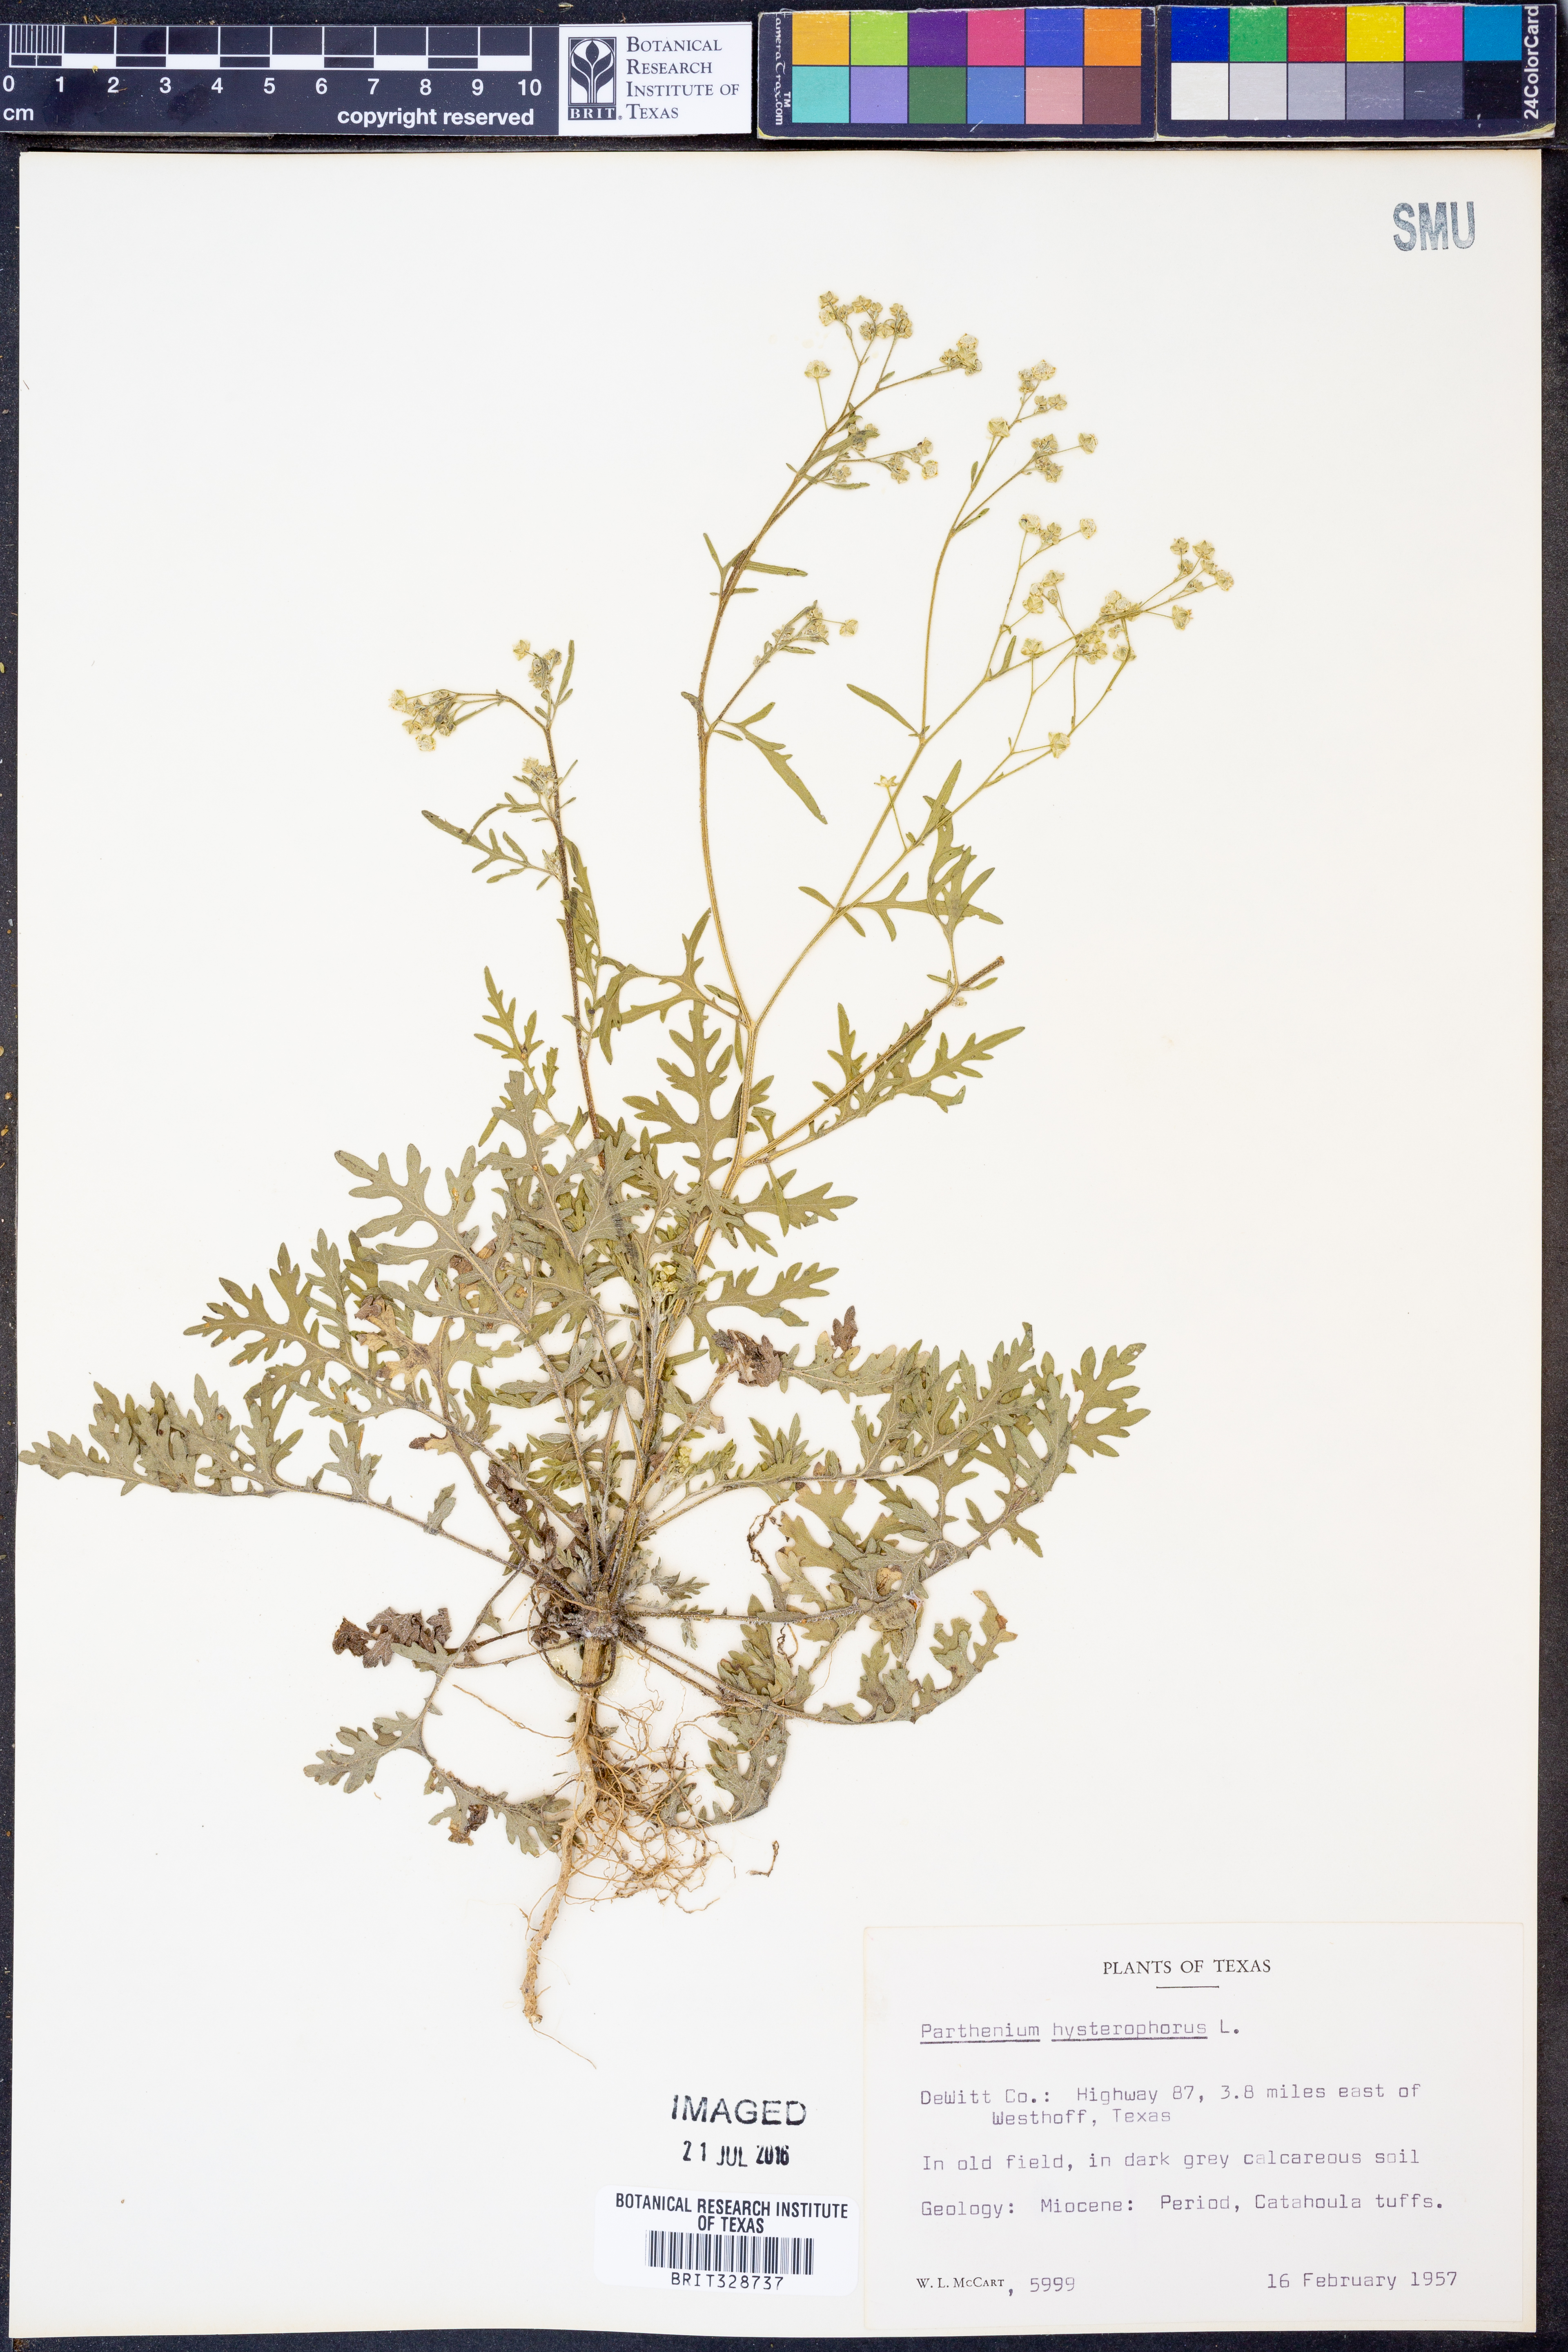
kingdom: Plantae
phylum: Tracheophyta
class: Magnoliopsida
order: Asterales
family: Asteraceae
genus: Parthenium
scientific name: Parthenium hysterophorus
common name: Santa maria feverfew
